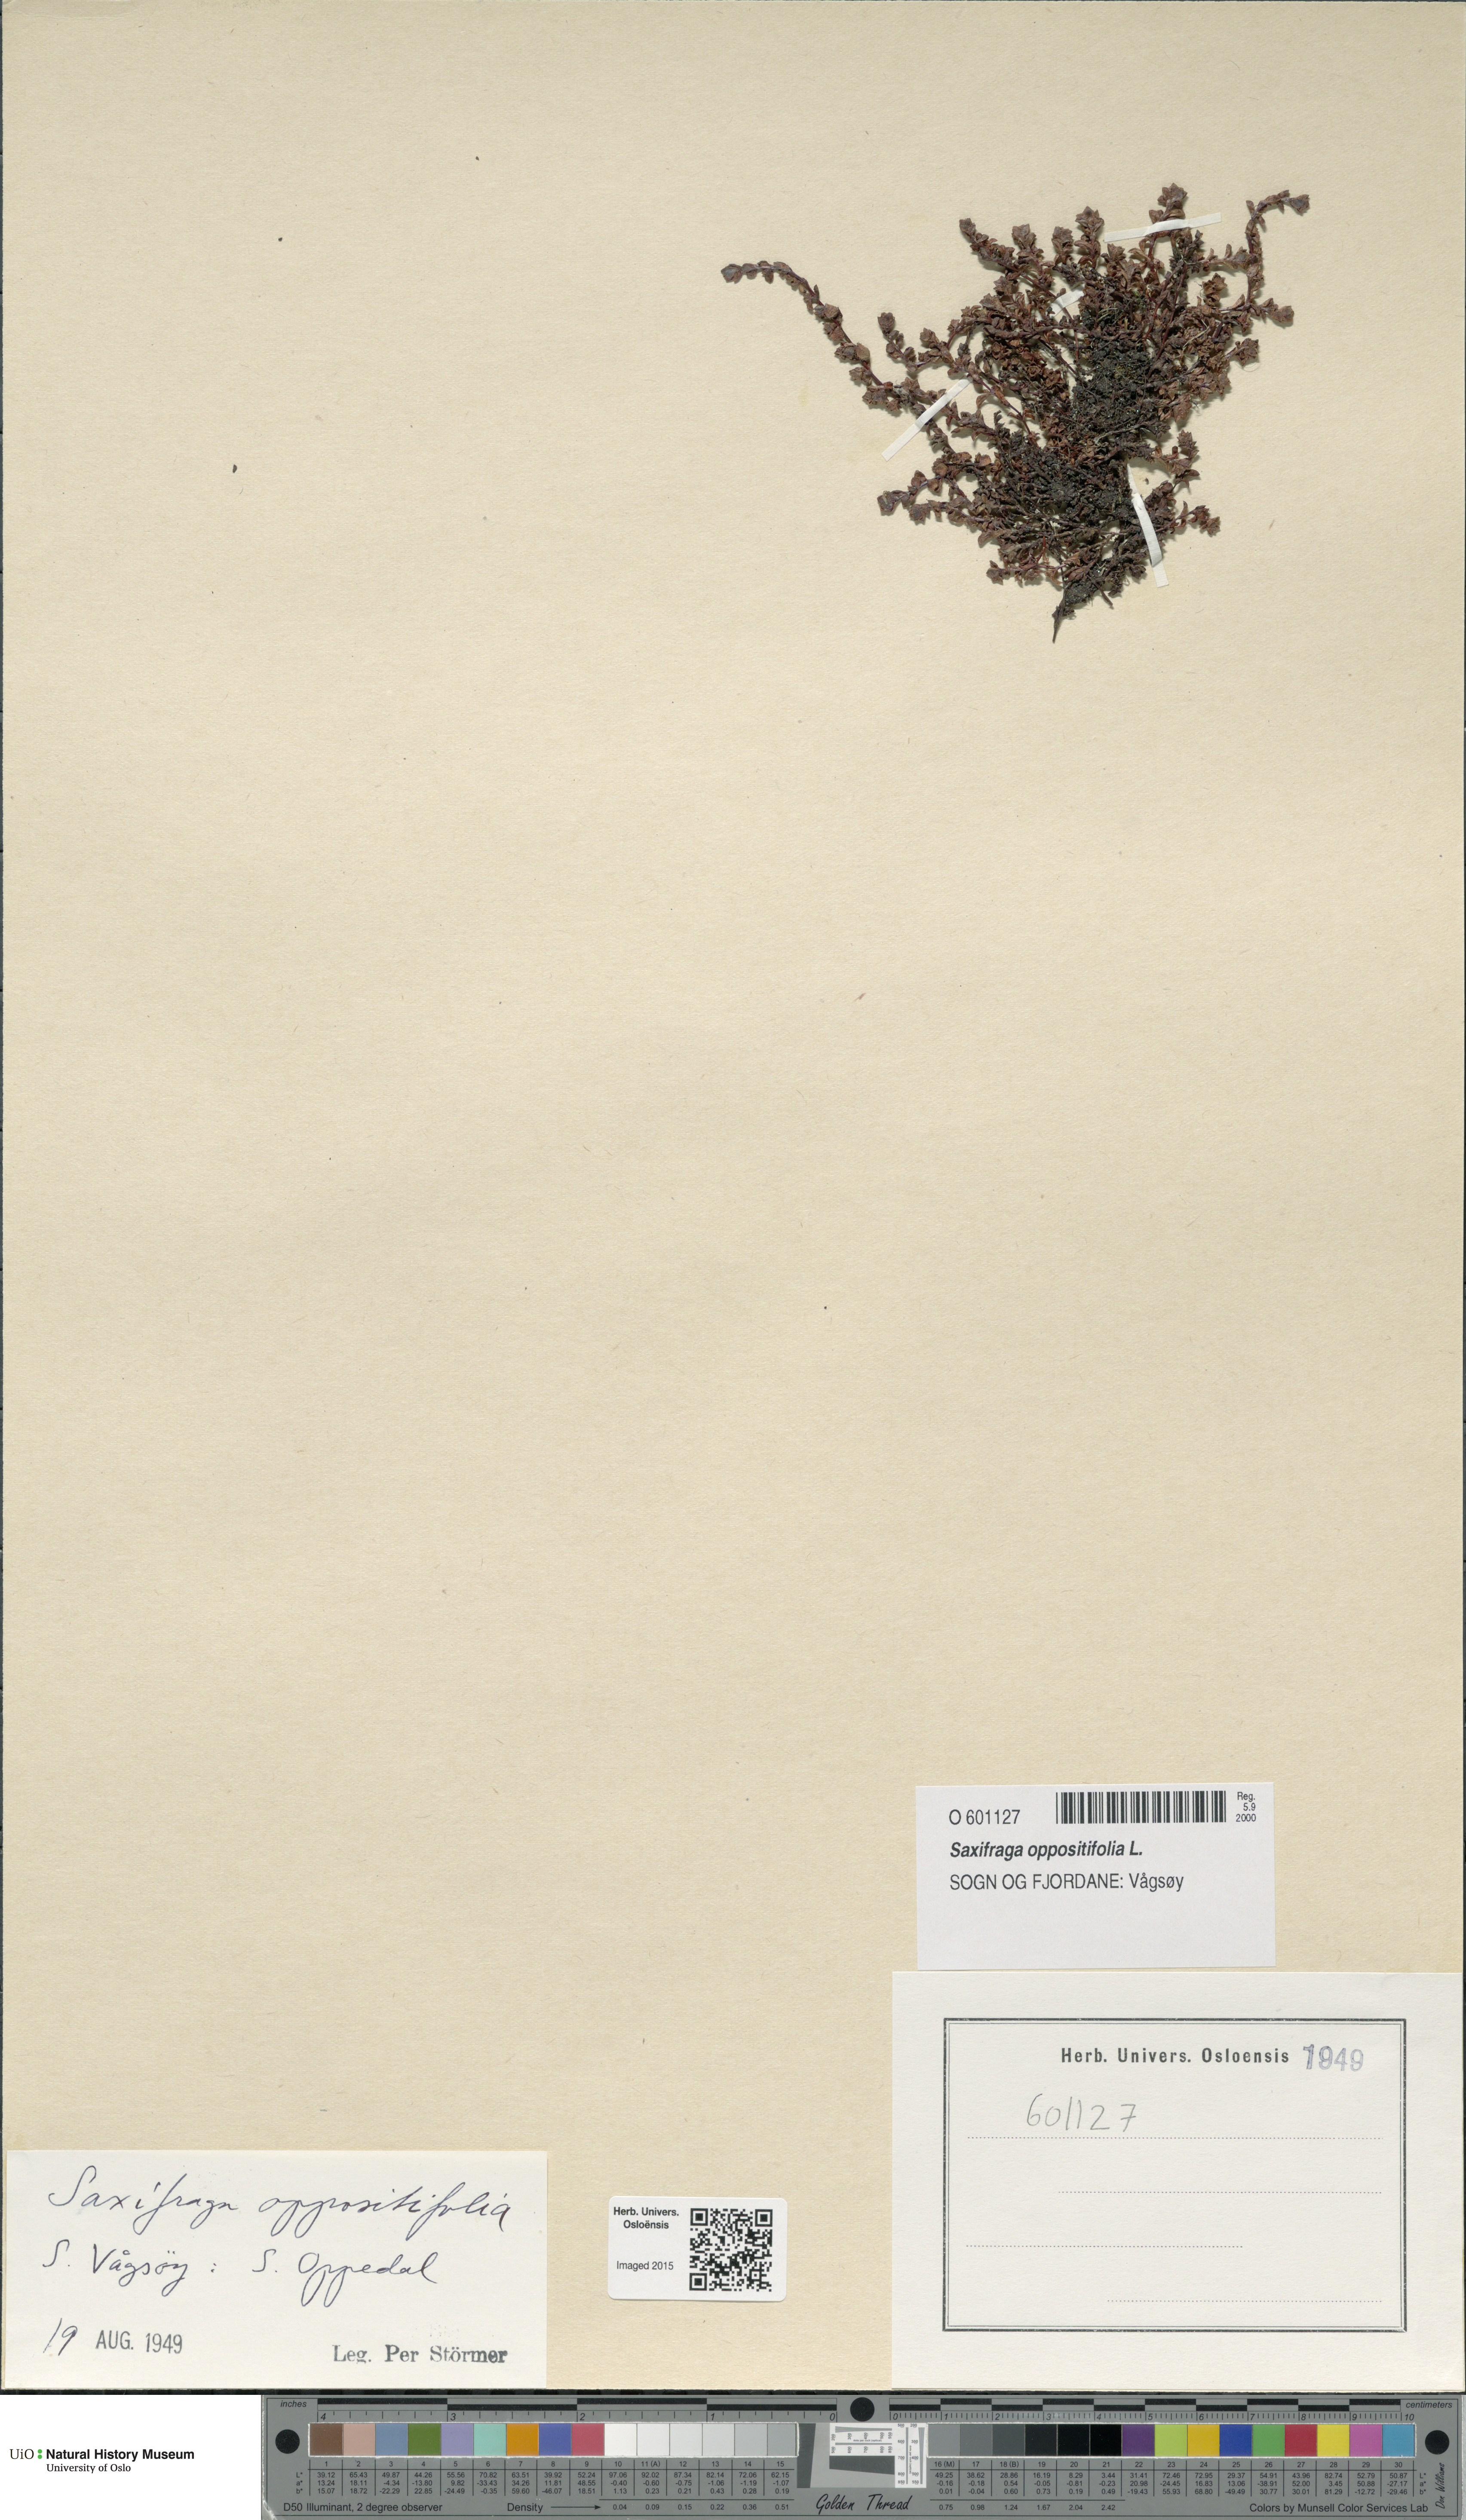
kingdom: Plantae
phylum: Tracheophyta
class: Magnoliopsida
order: Saxifragales
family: Saxifragaceae
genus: Saxifraga
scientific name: Saxifraga oppositifolia
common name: Purple saxifrage
